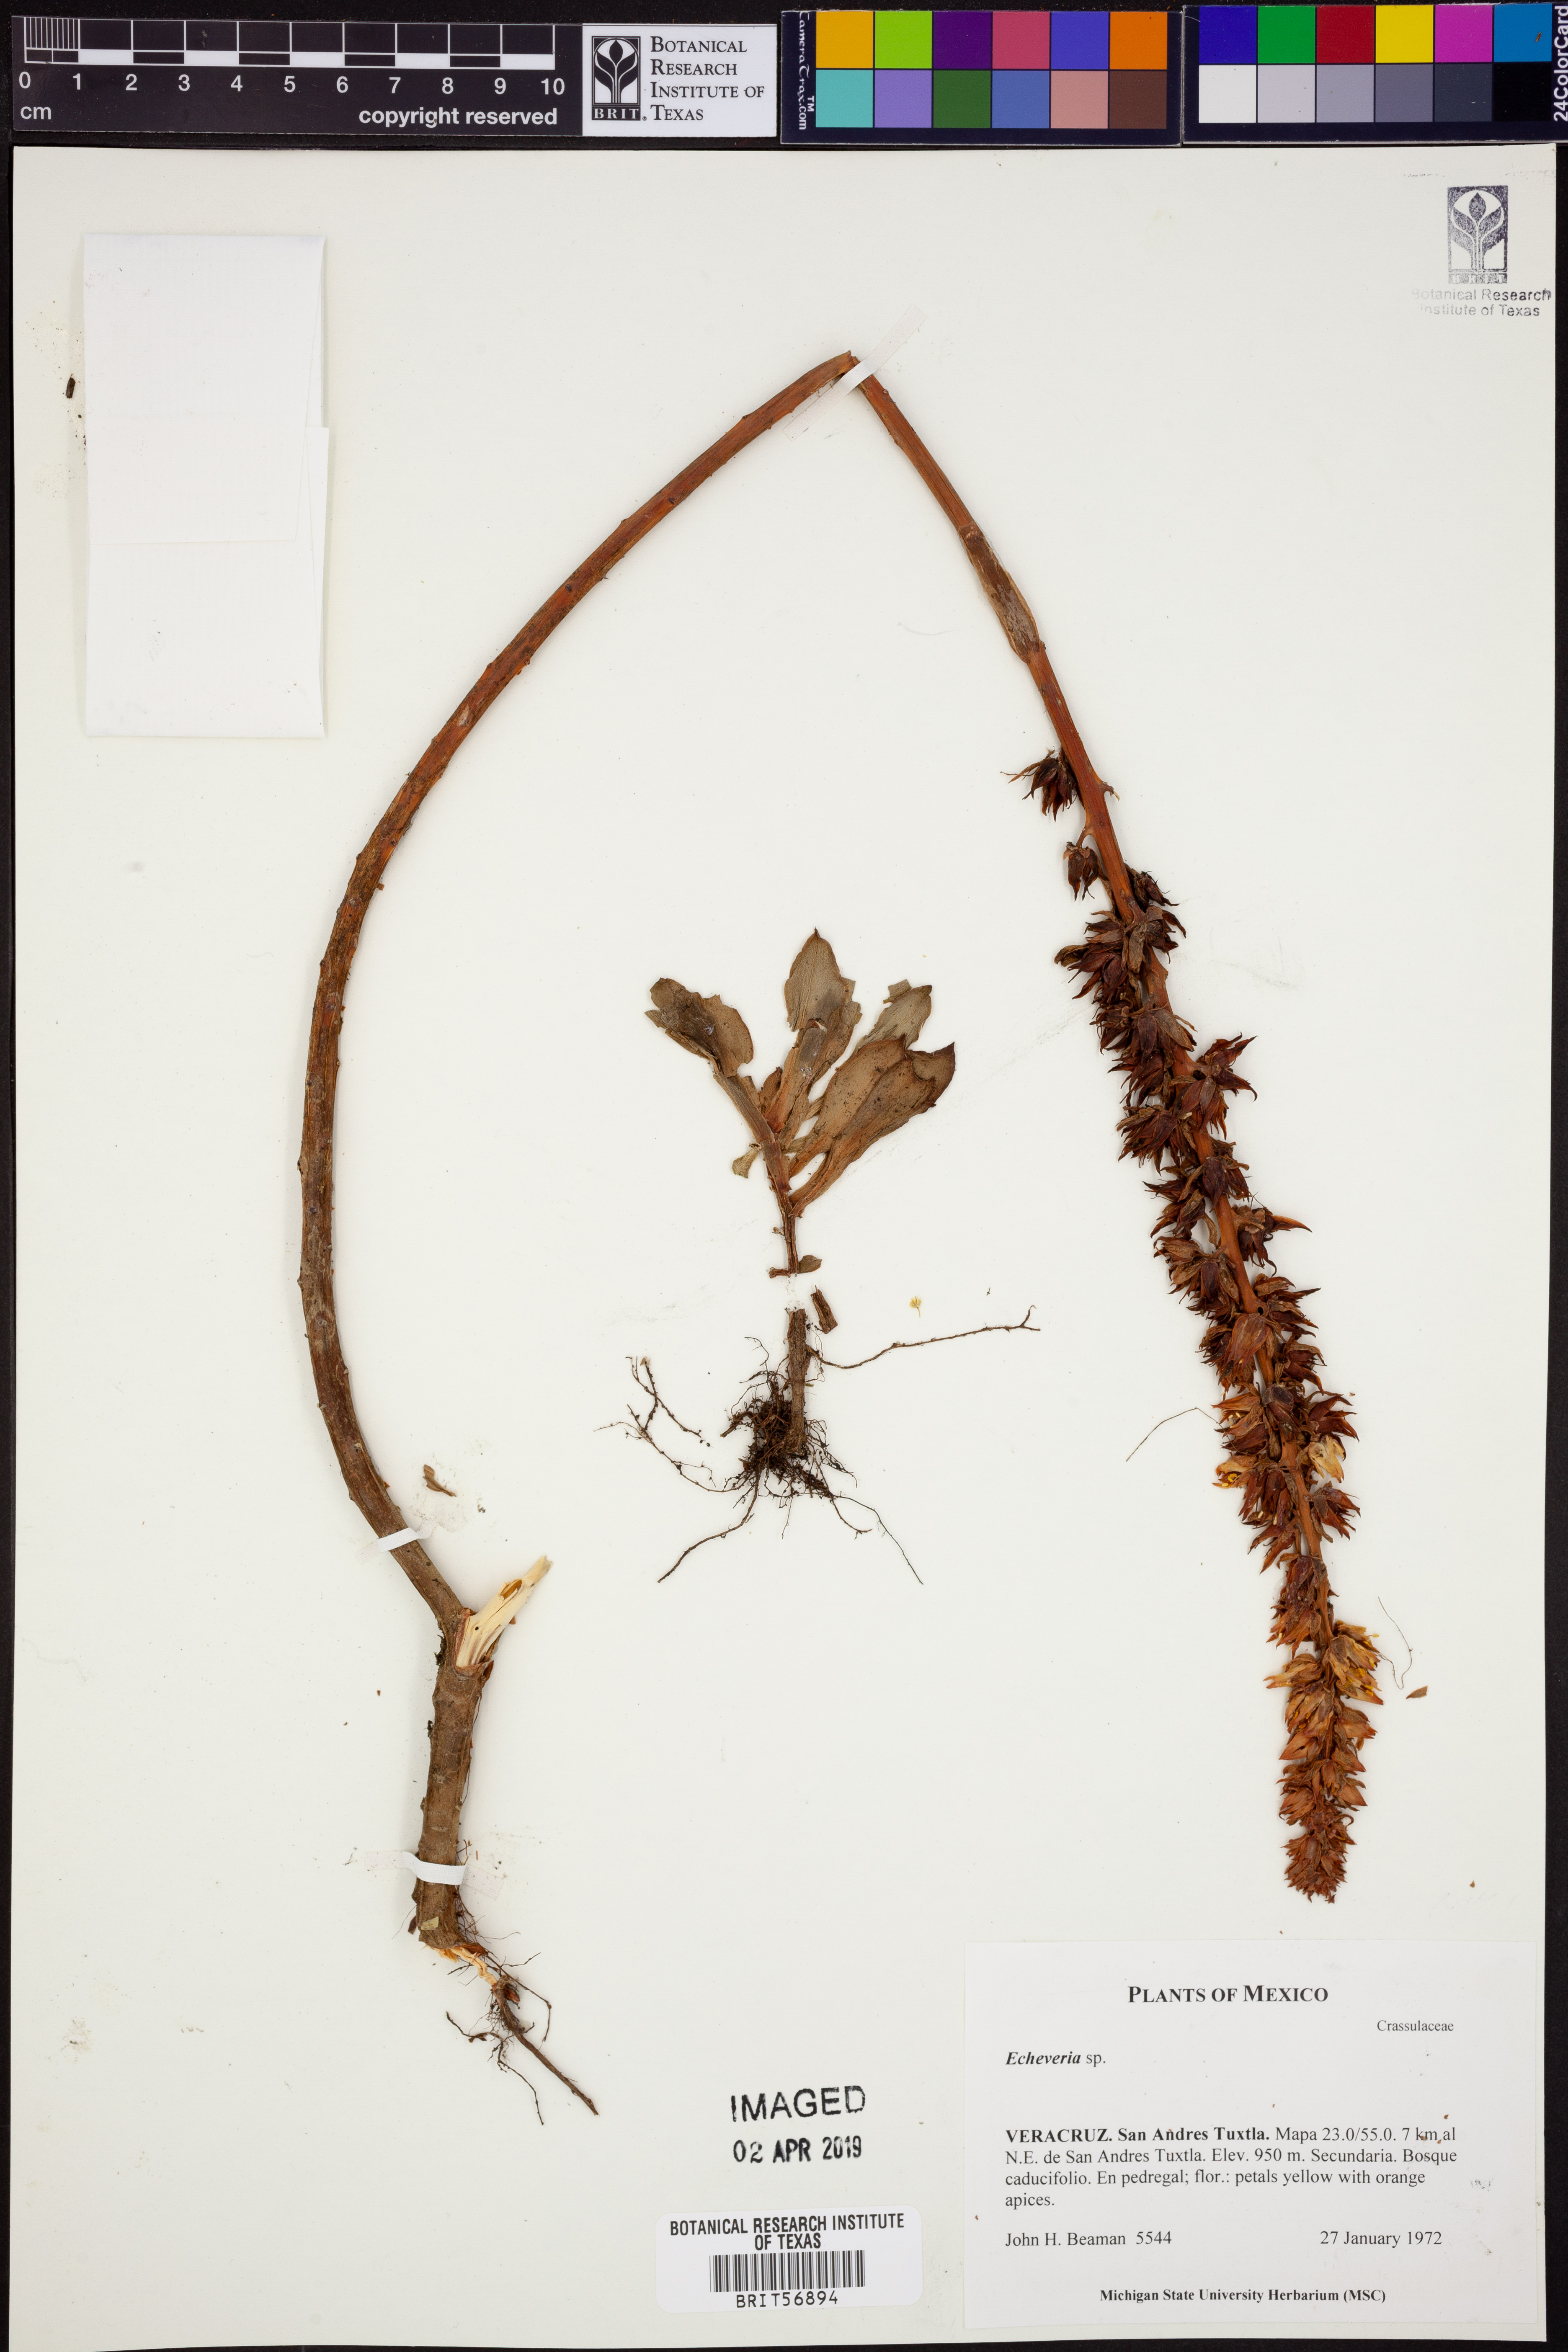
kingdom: Plantae
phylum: Tracheophyta
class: Magnoliopsida
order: Saxifragales
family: Crassulaceae
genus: Echeveria
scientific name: Echeveria
